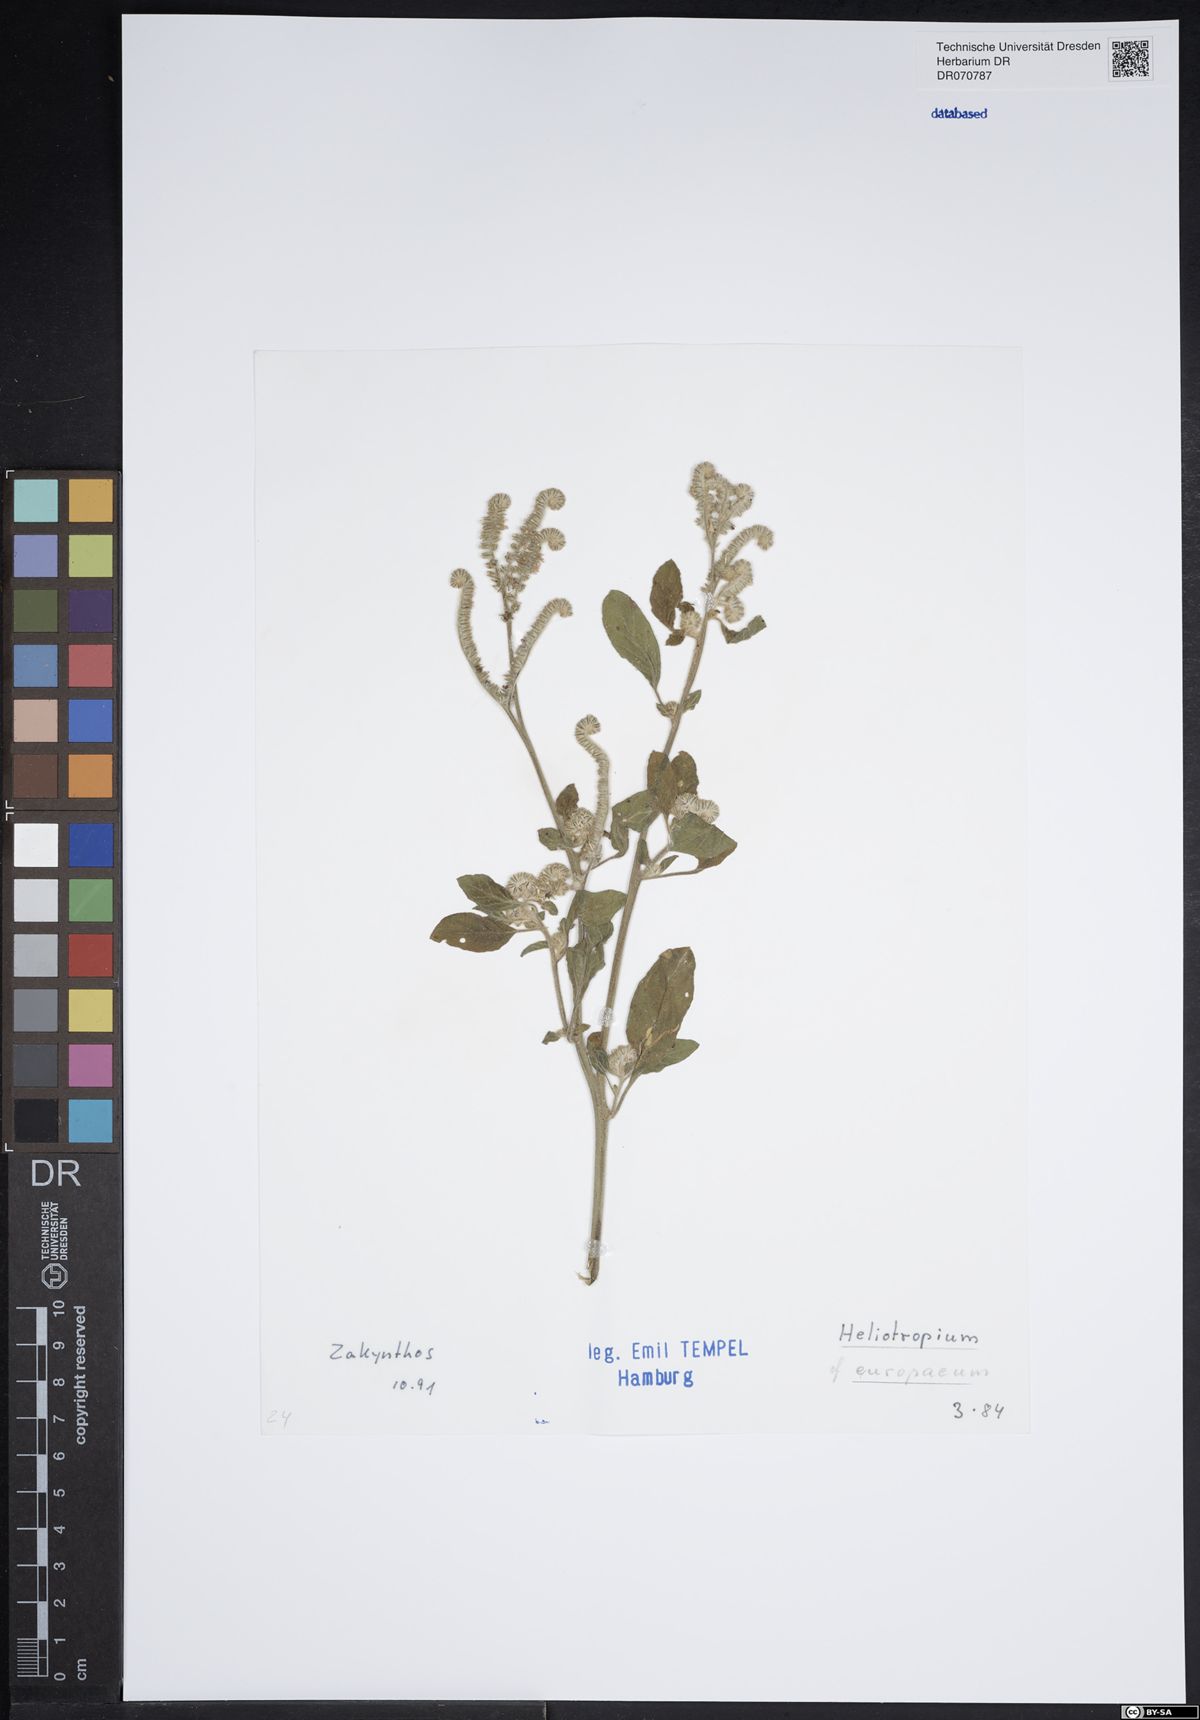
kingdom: Plantae
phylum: Tracheophyta
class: Magnoliopsida
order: Boraginales
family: Heliotropiaceae
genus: Heliotropium
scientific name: Heliotropium europaeum
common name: European heliotrope
